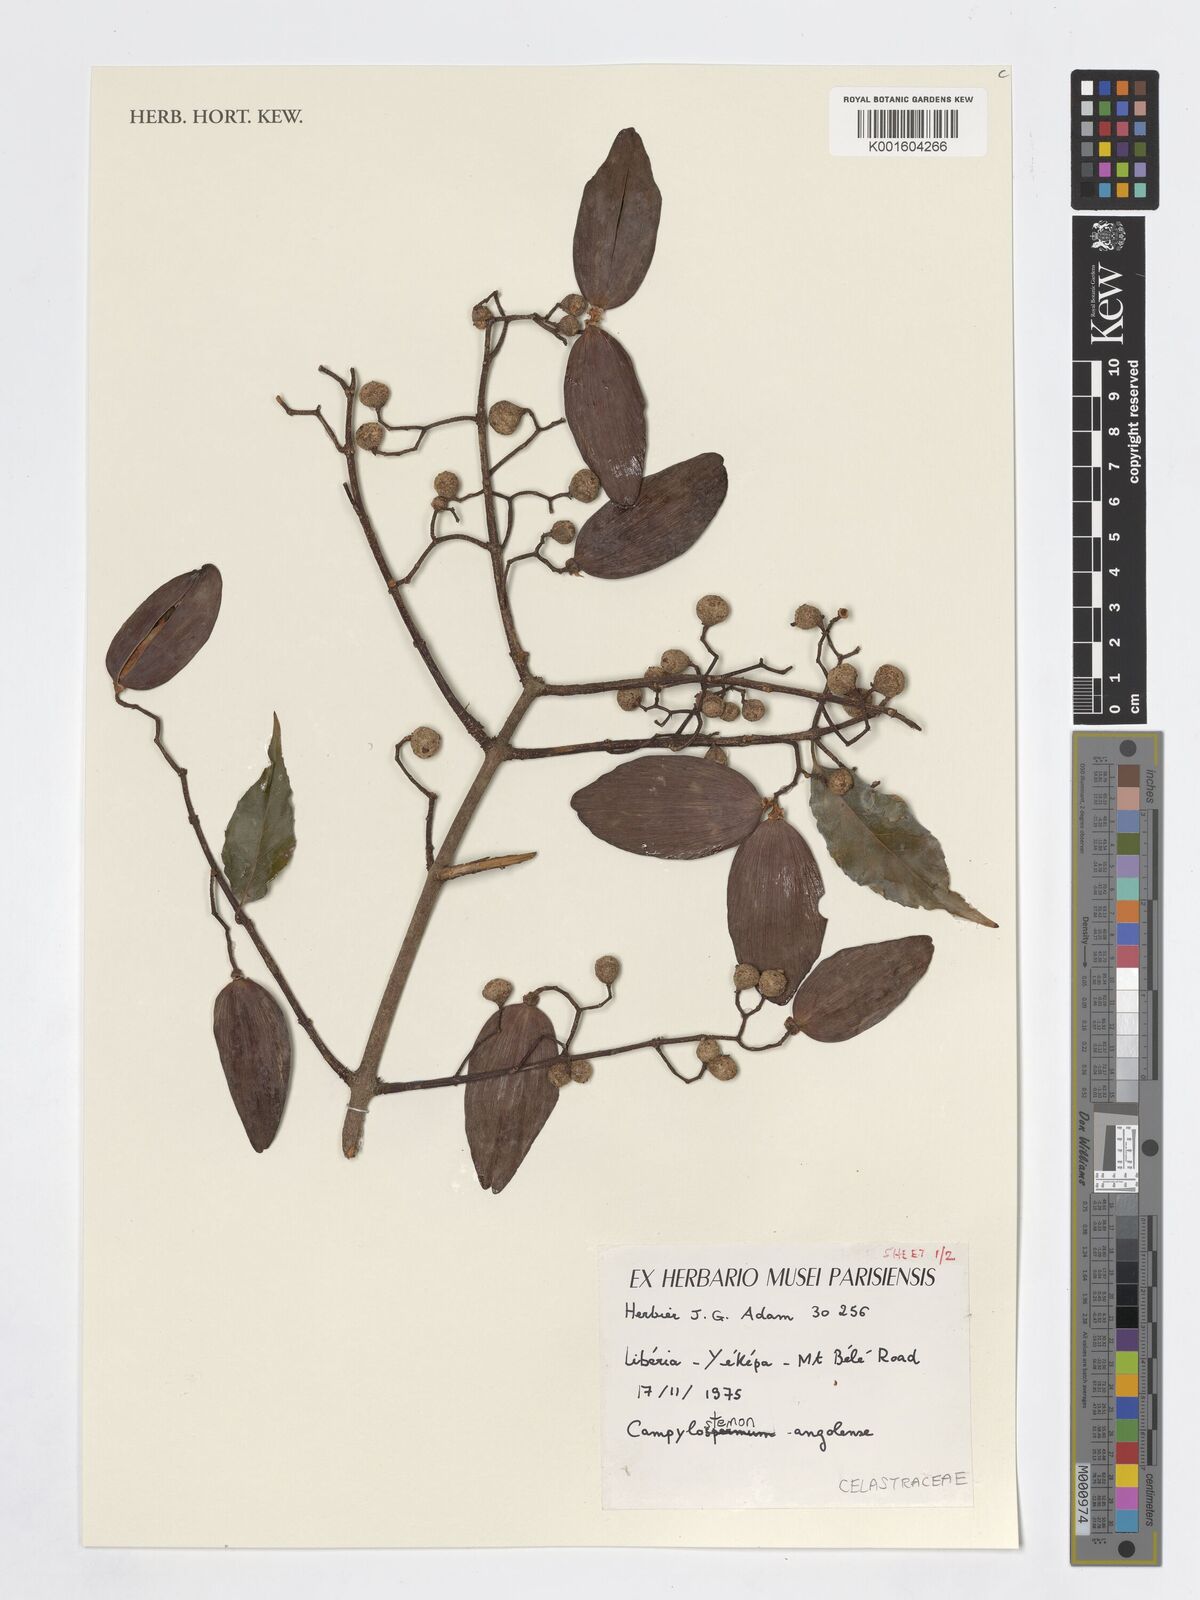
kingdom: Plantae
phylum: Tracheophyta
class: Magnoliopsida
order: Celastrales
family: Celastraceae
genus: Campylostemon
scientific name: Campylostemon
